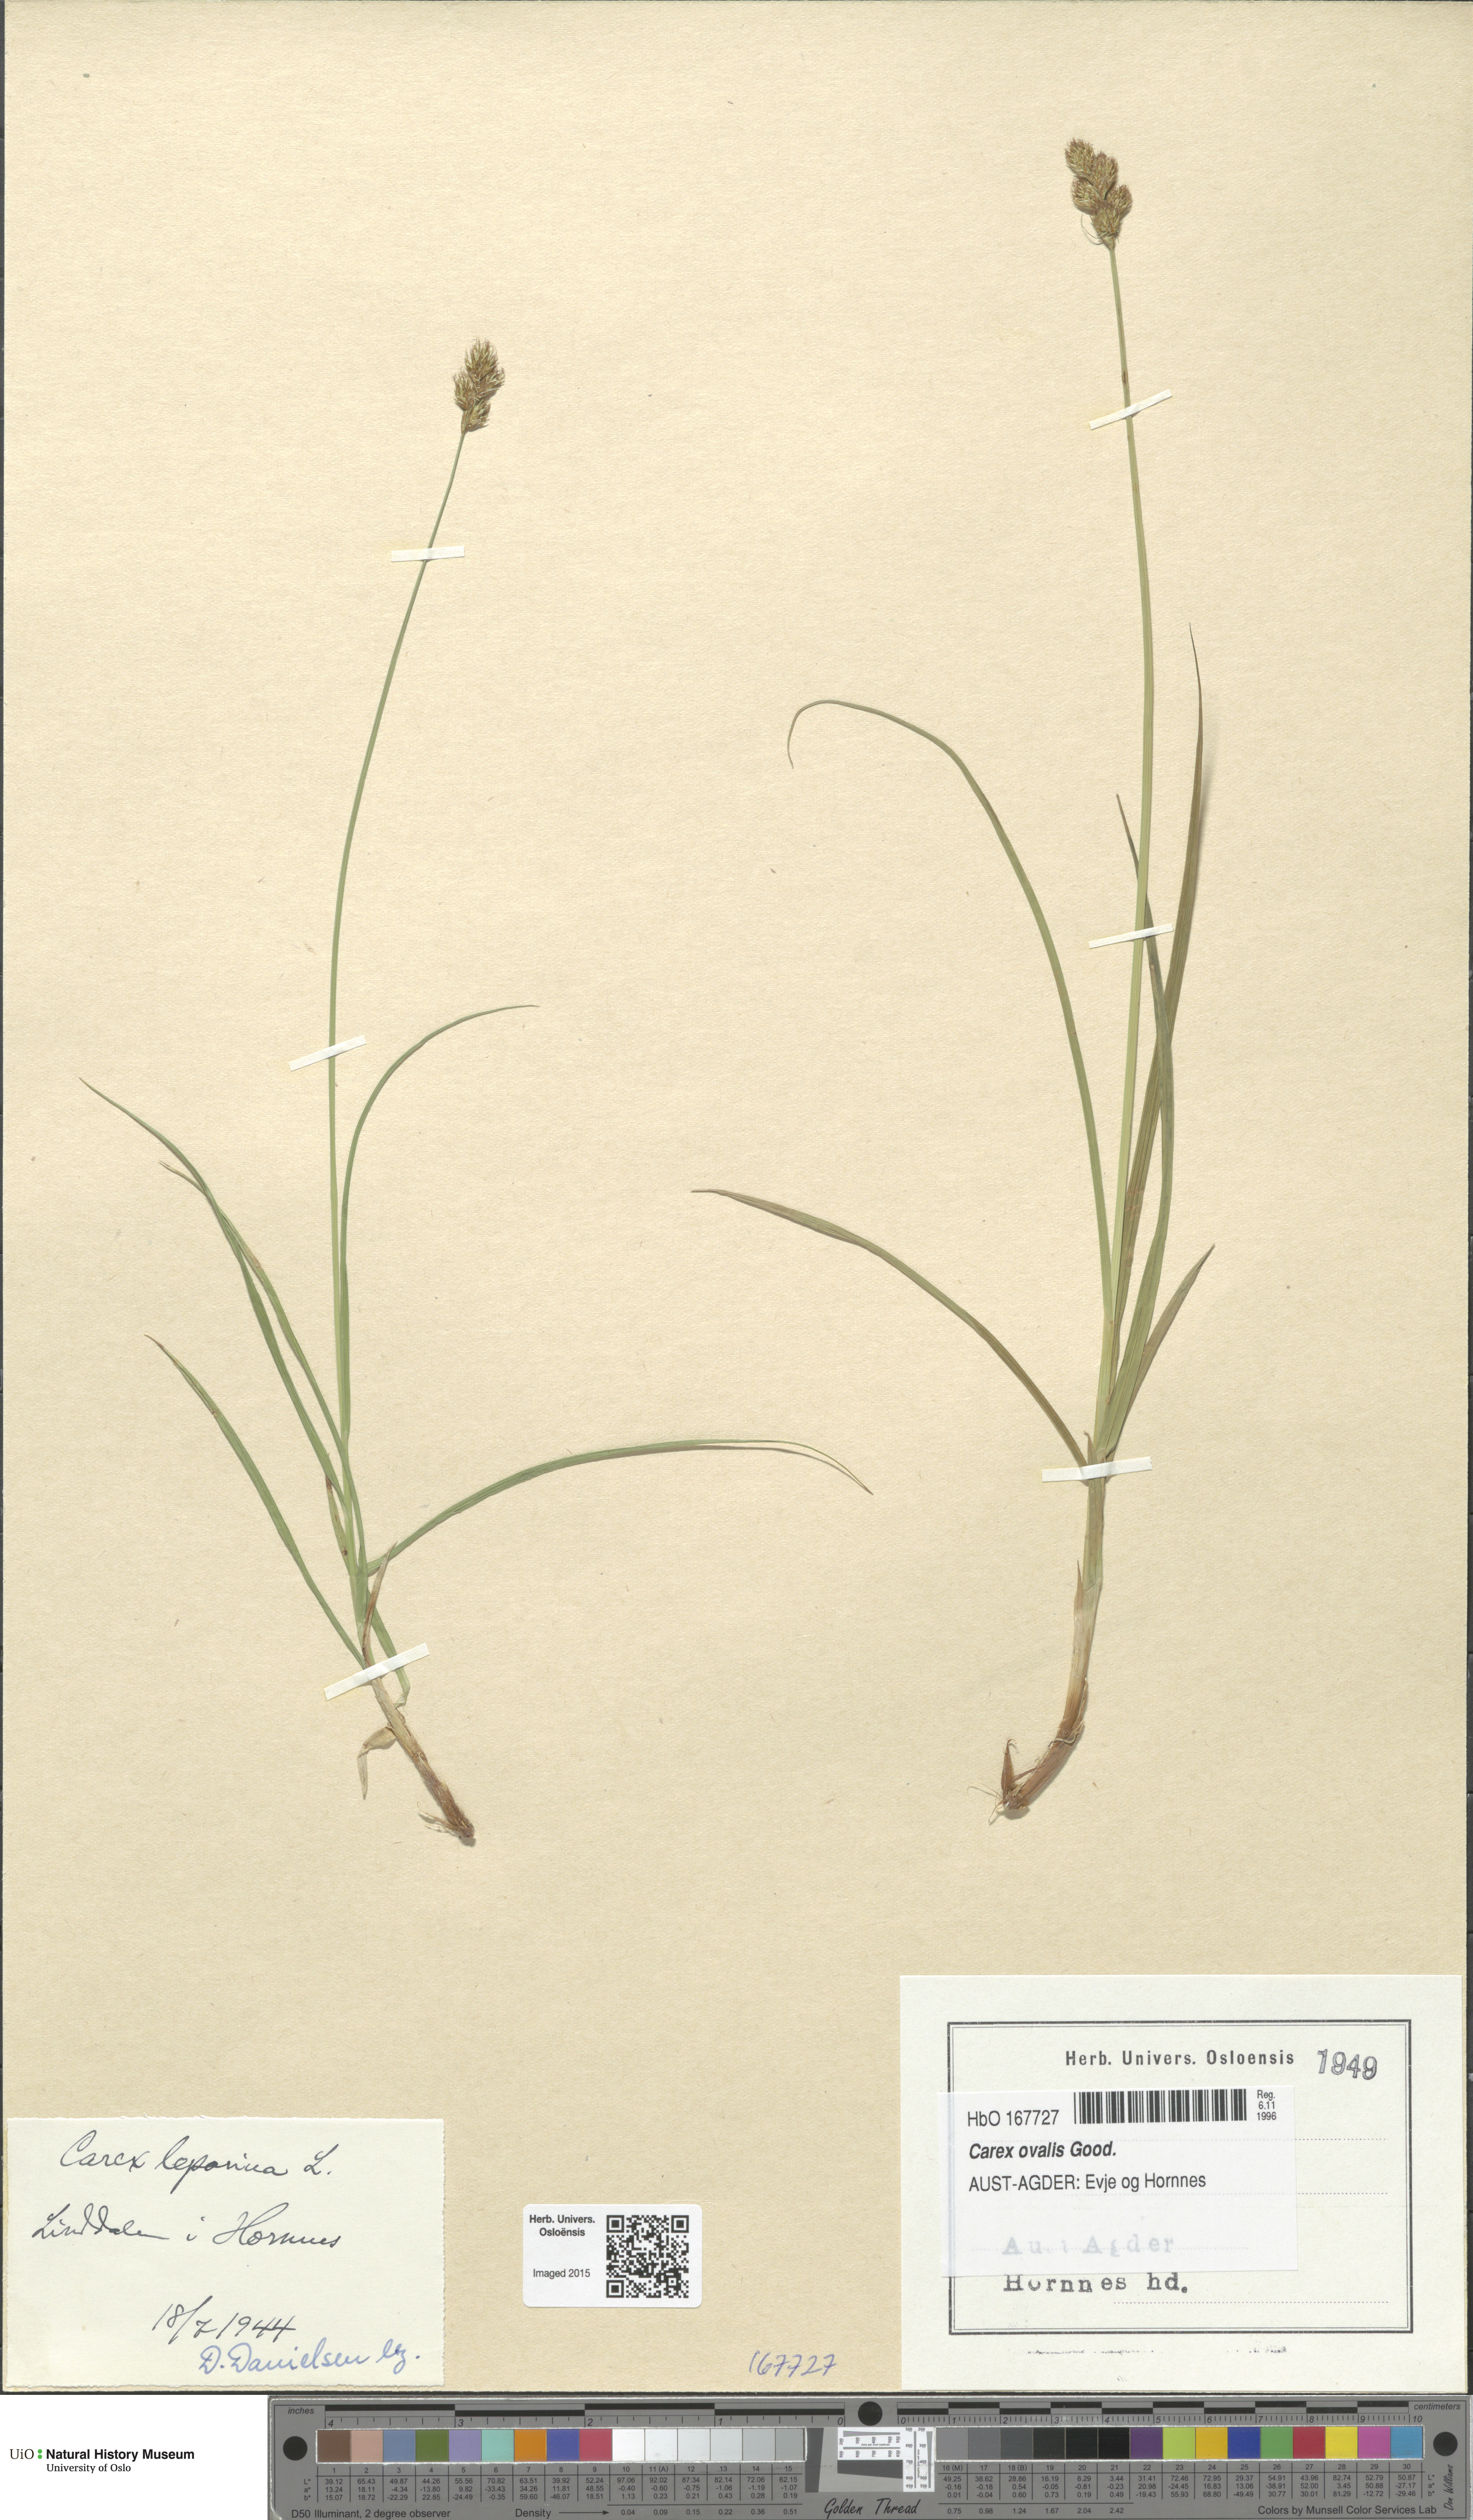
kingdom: Plantae
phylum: Tracheophyta
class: Liliopsida
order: Poales
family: Cyperaceae
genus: Carex
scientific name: Carex leporina
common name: Oval sedge
